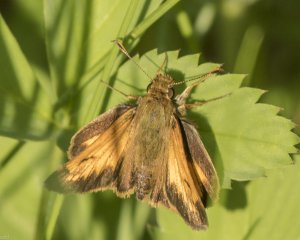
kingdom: Animalia
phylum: Arthropoda
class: Insecta
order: Lepidoptera
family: Hesperiidae
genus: Lon
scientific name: Lon hobomok
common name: Hobomok Skipper
